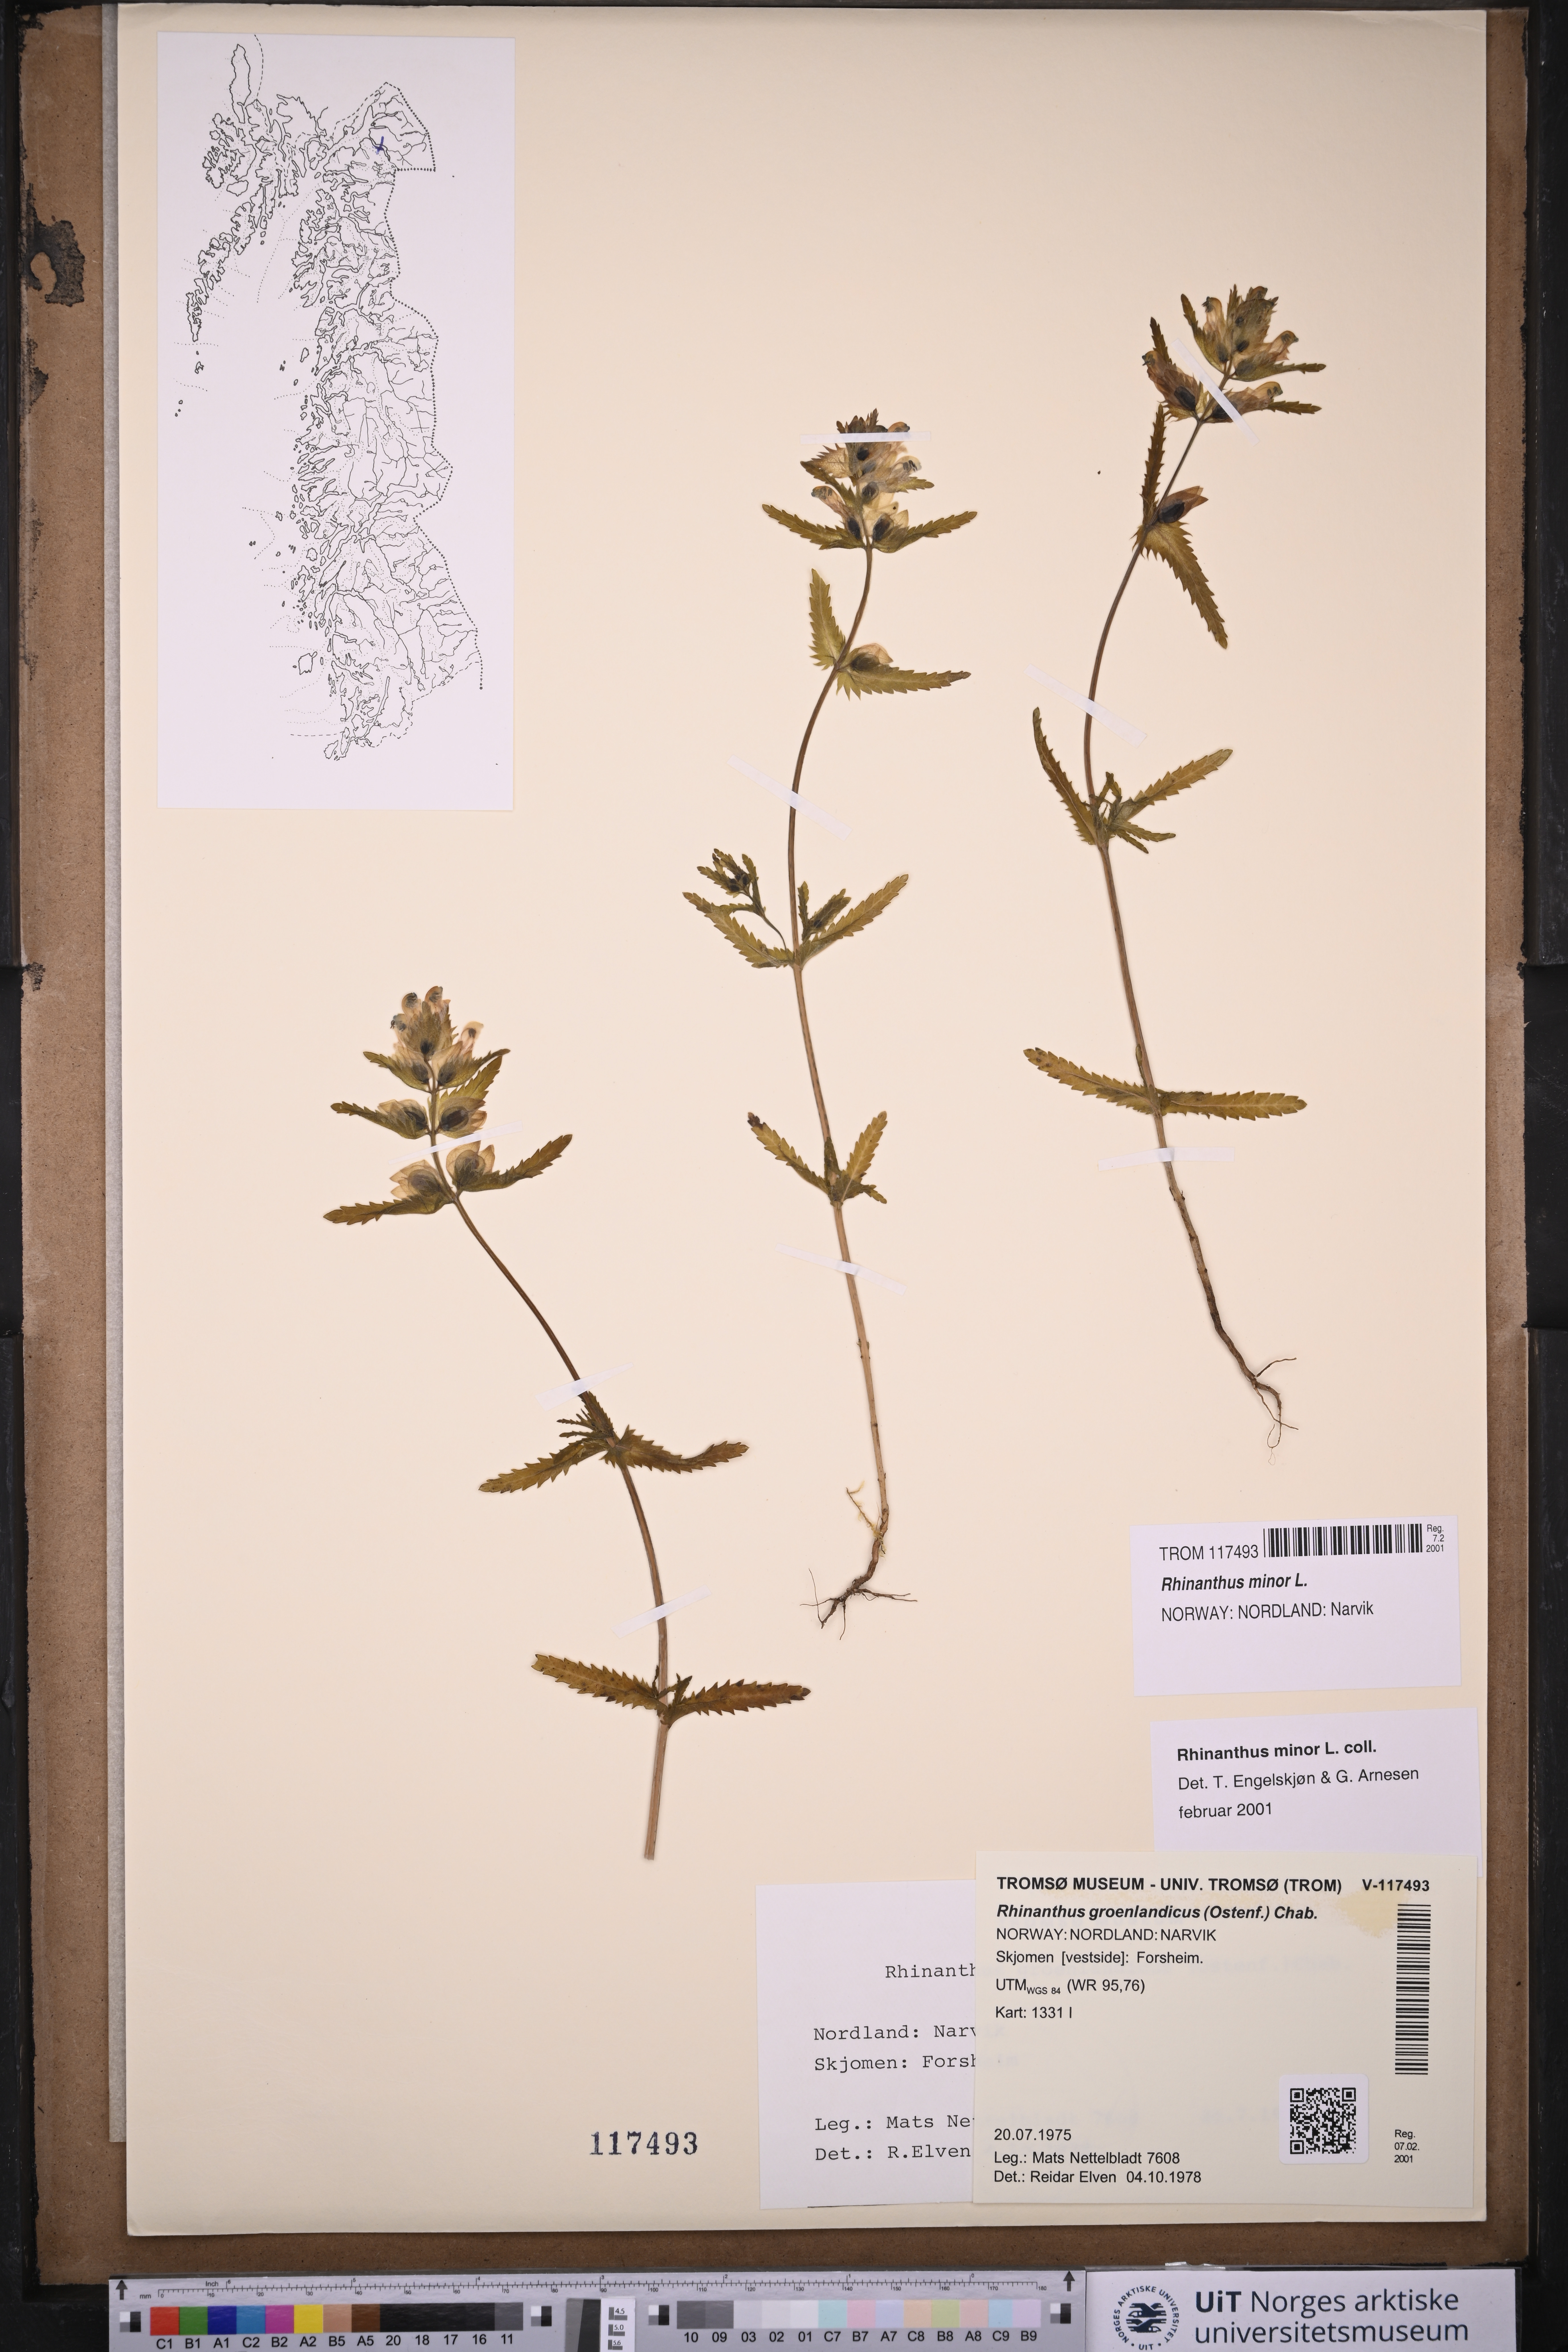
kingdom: Plantae
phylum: Tracheophyta
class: Magnoliopsida
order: Lamiales
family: Orobanchaceae
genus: Rhinanthus
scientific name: Rhinanthus minor
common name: Yellow-rattle
